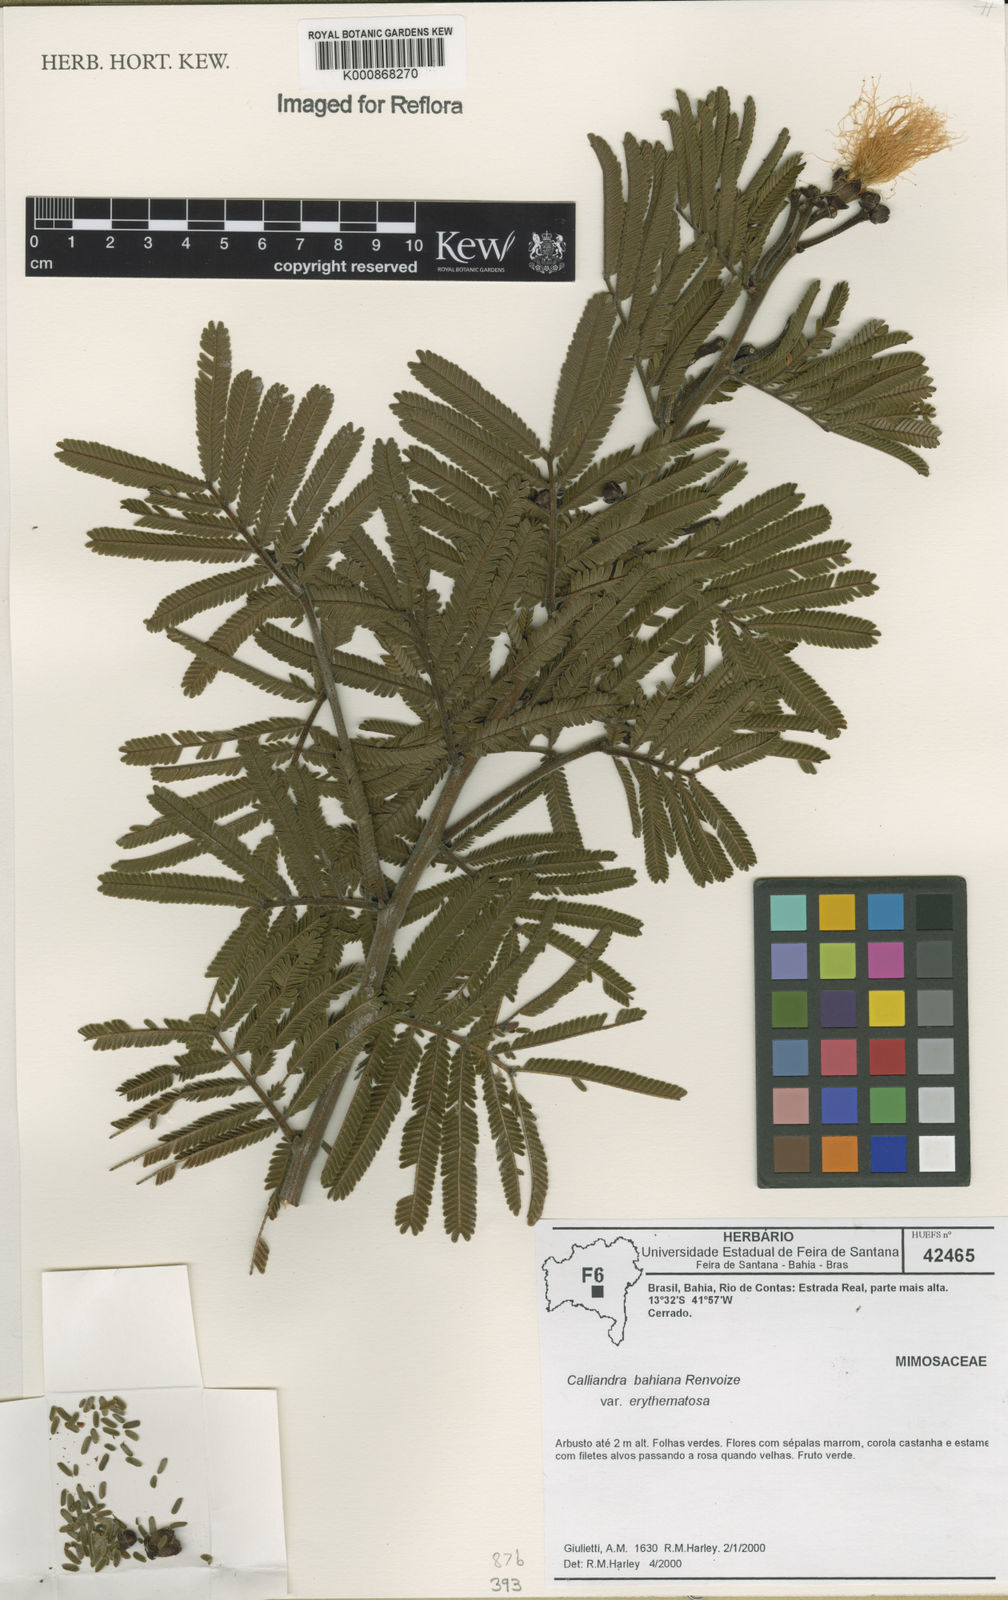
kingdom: Plantae
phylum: Tracheophyta
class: Magnoliopsida
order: Fabales
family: Fabaceae
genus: Calliandra
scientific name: Calliandra bahiana
